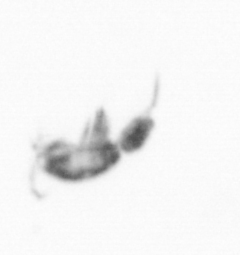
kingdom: Animalia
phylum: Arthropoda
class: Copepoda
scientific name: Copepoda
